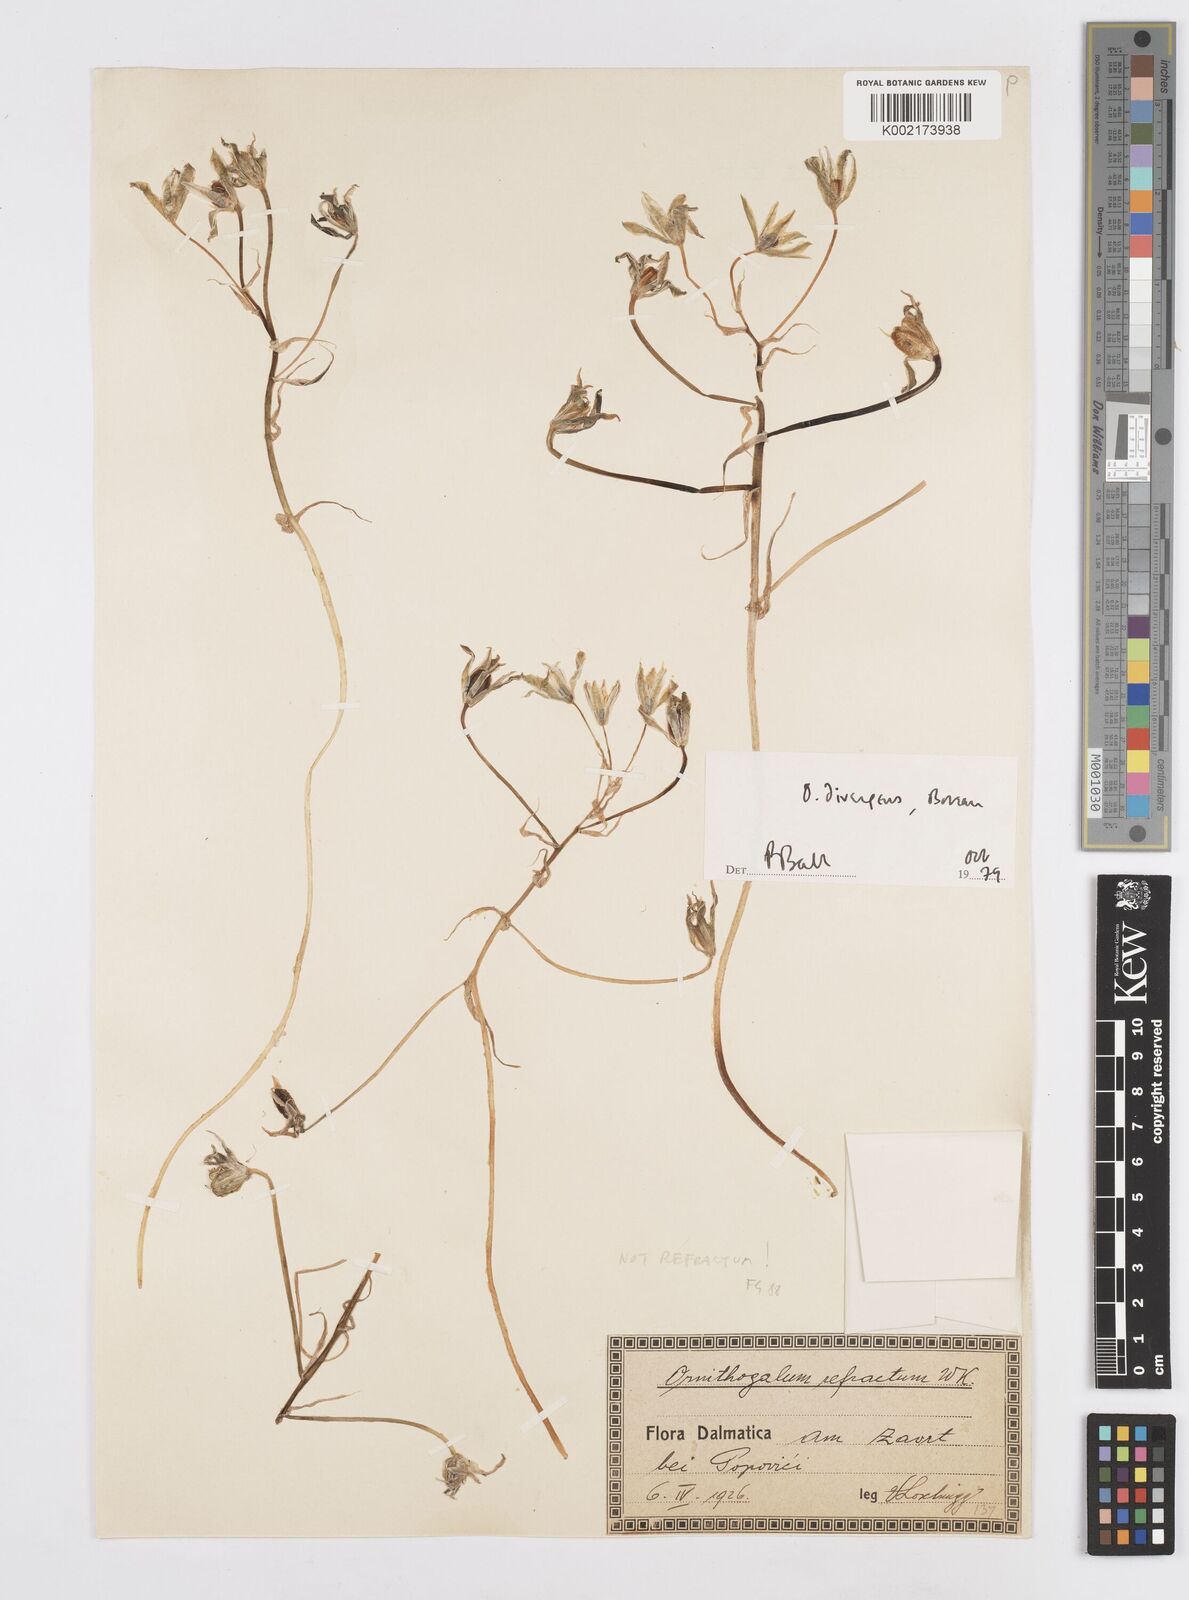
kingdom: Plantae
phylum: Tracheophyta
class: Liliopsida
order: Asparagales
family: Asparagaceae
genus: Ornithogalum
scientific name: Ornithogalum refractum
